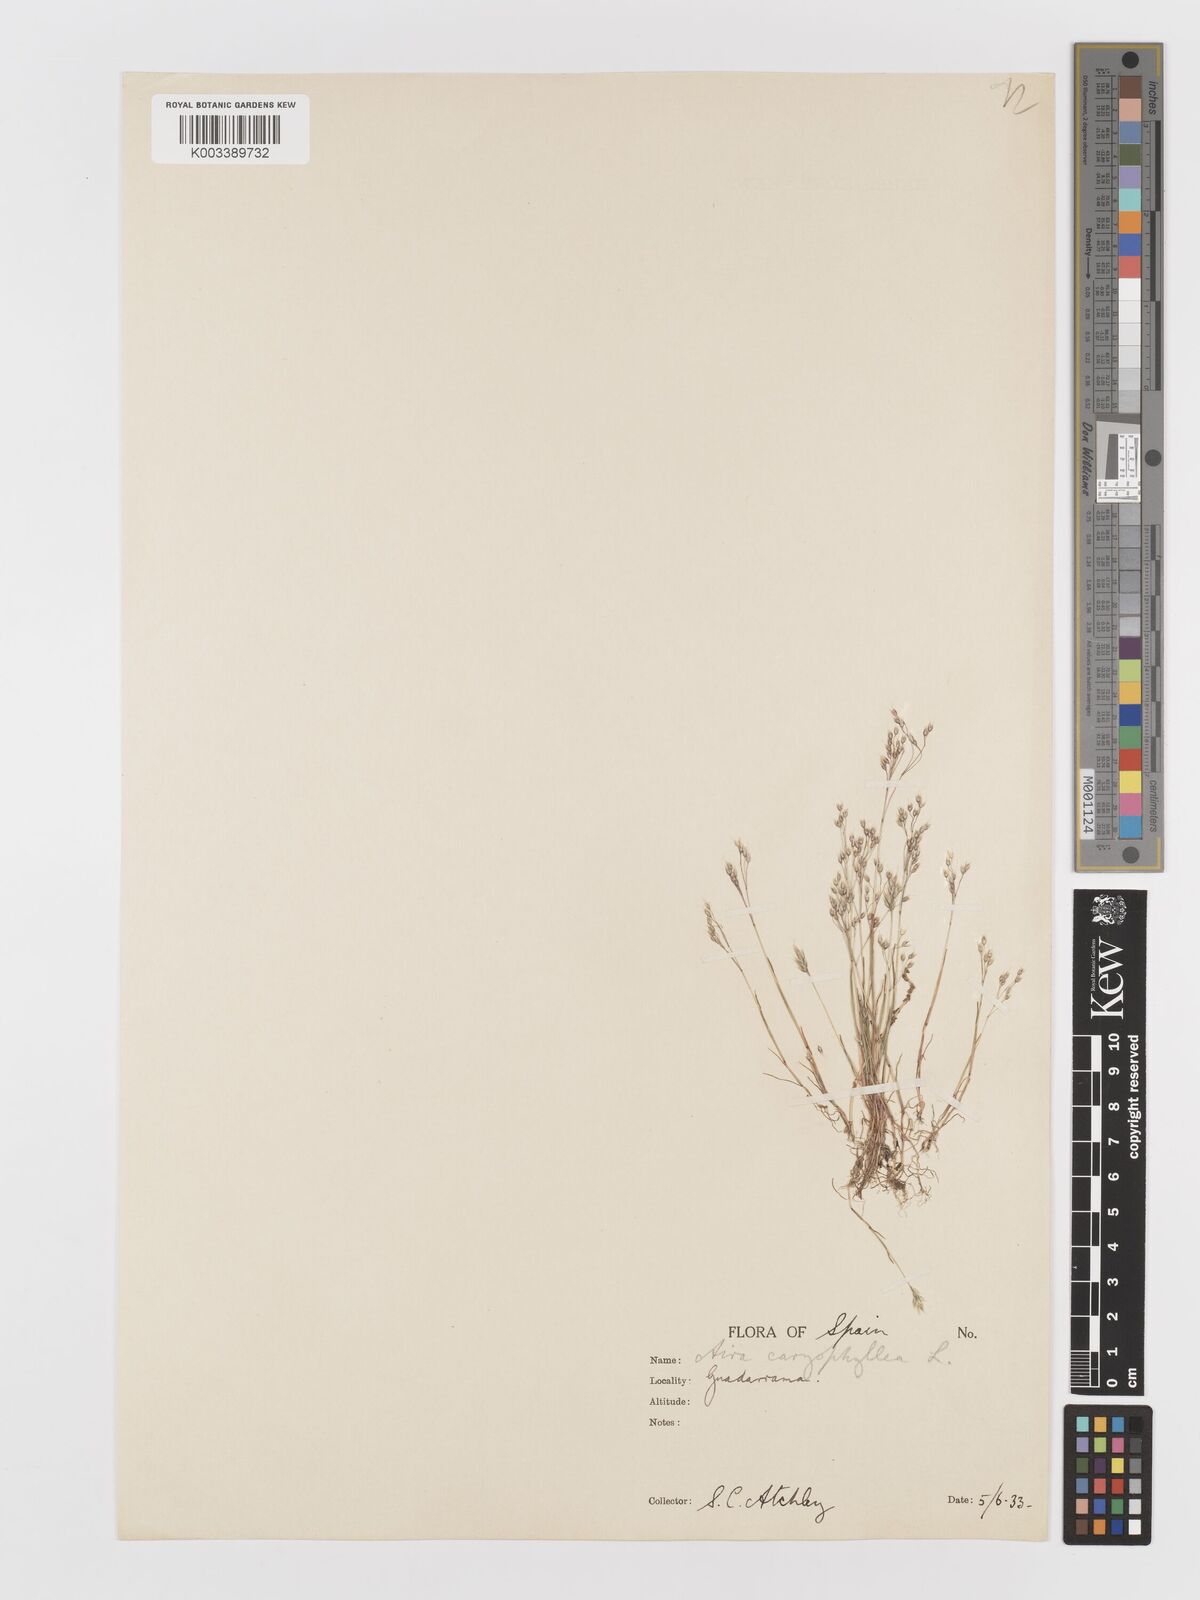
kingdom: Plantae
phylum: Tracheophyta
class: Liliopsida
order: Poales
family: Poaceae
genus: Aira
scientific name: Aira caryophyllea
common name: Silver hairgrass
